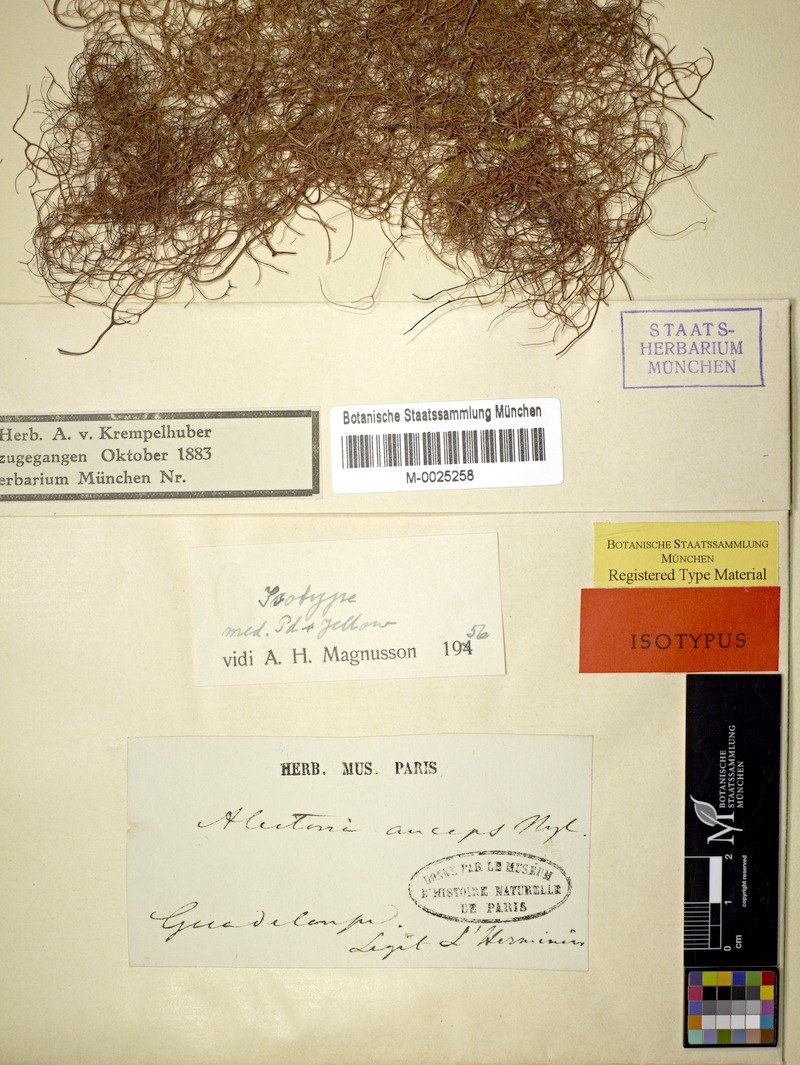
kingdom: Fungi
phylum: Ascomycota
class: Lecanoromycetes
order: Lecanorales
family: Ramalinaceae
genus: Ramalina
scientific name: Ramalina anceps
